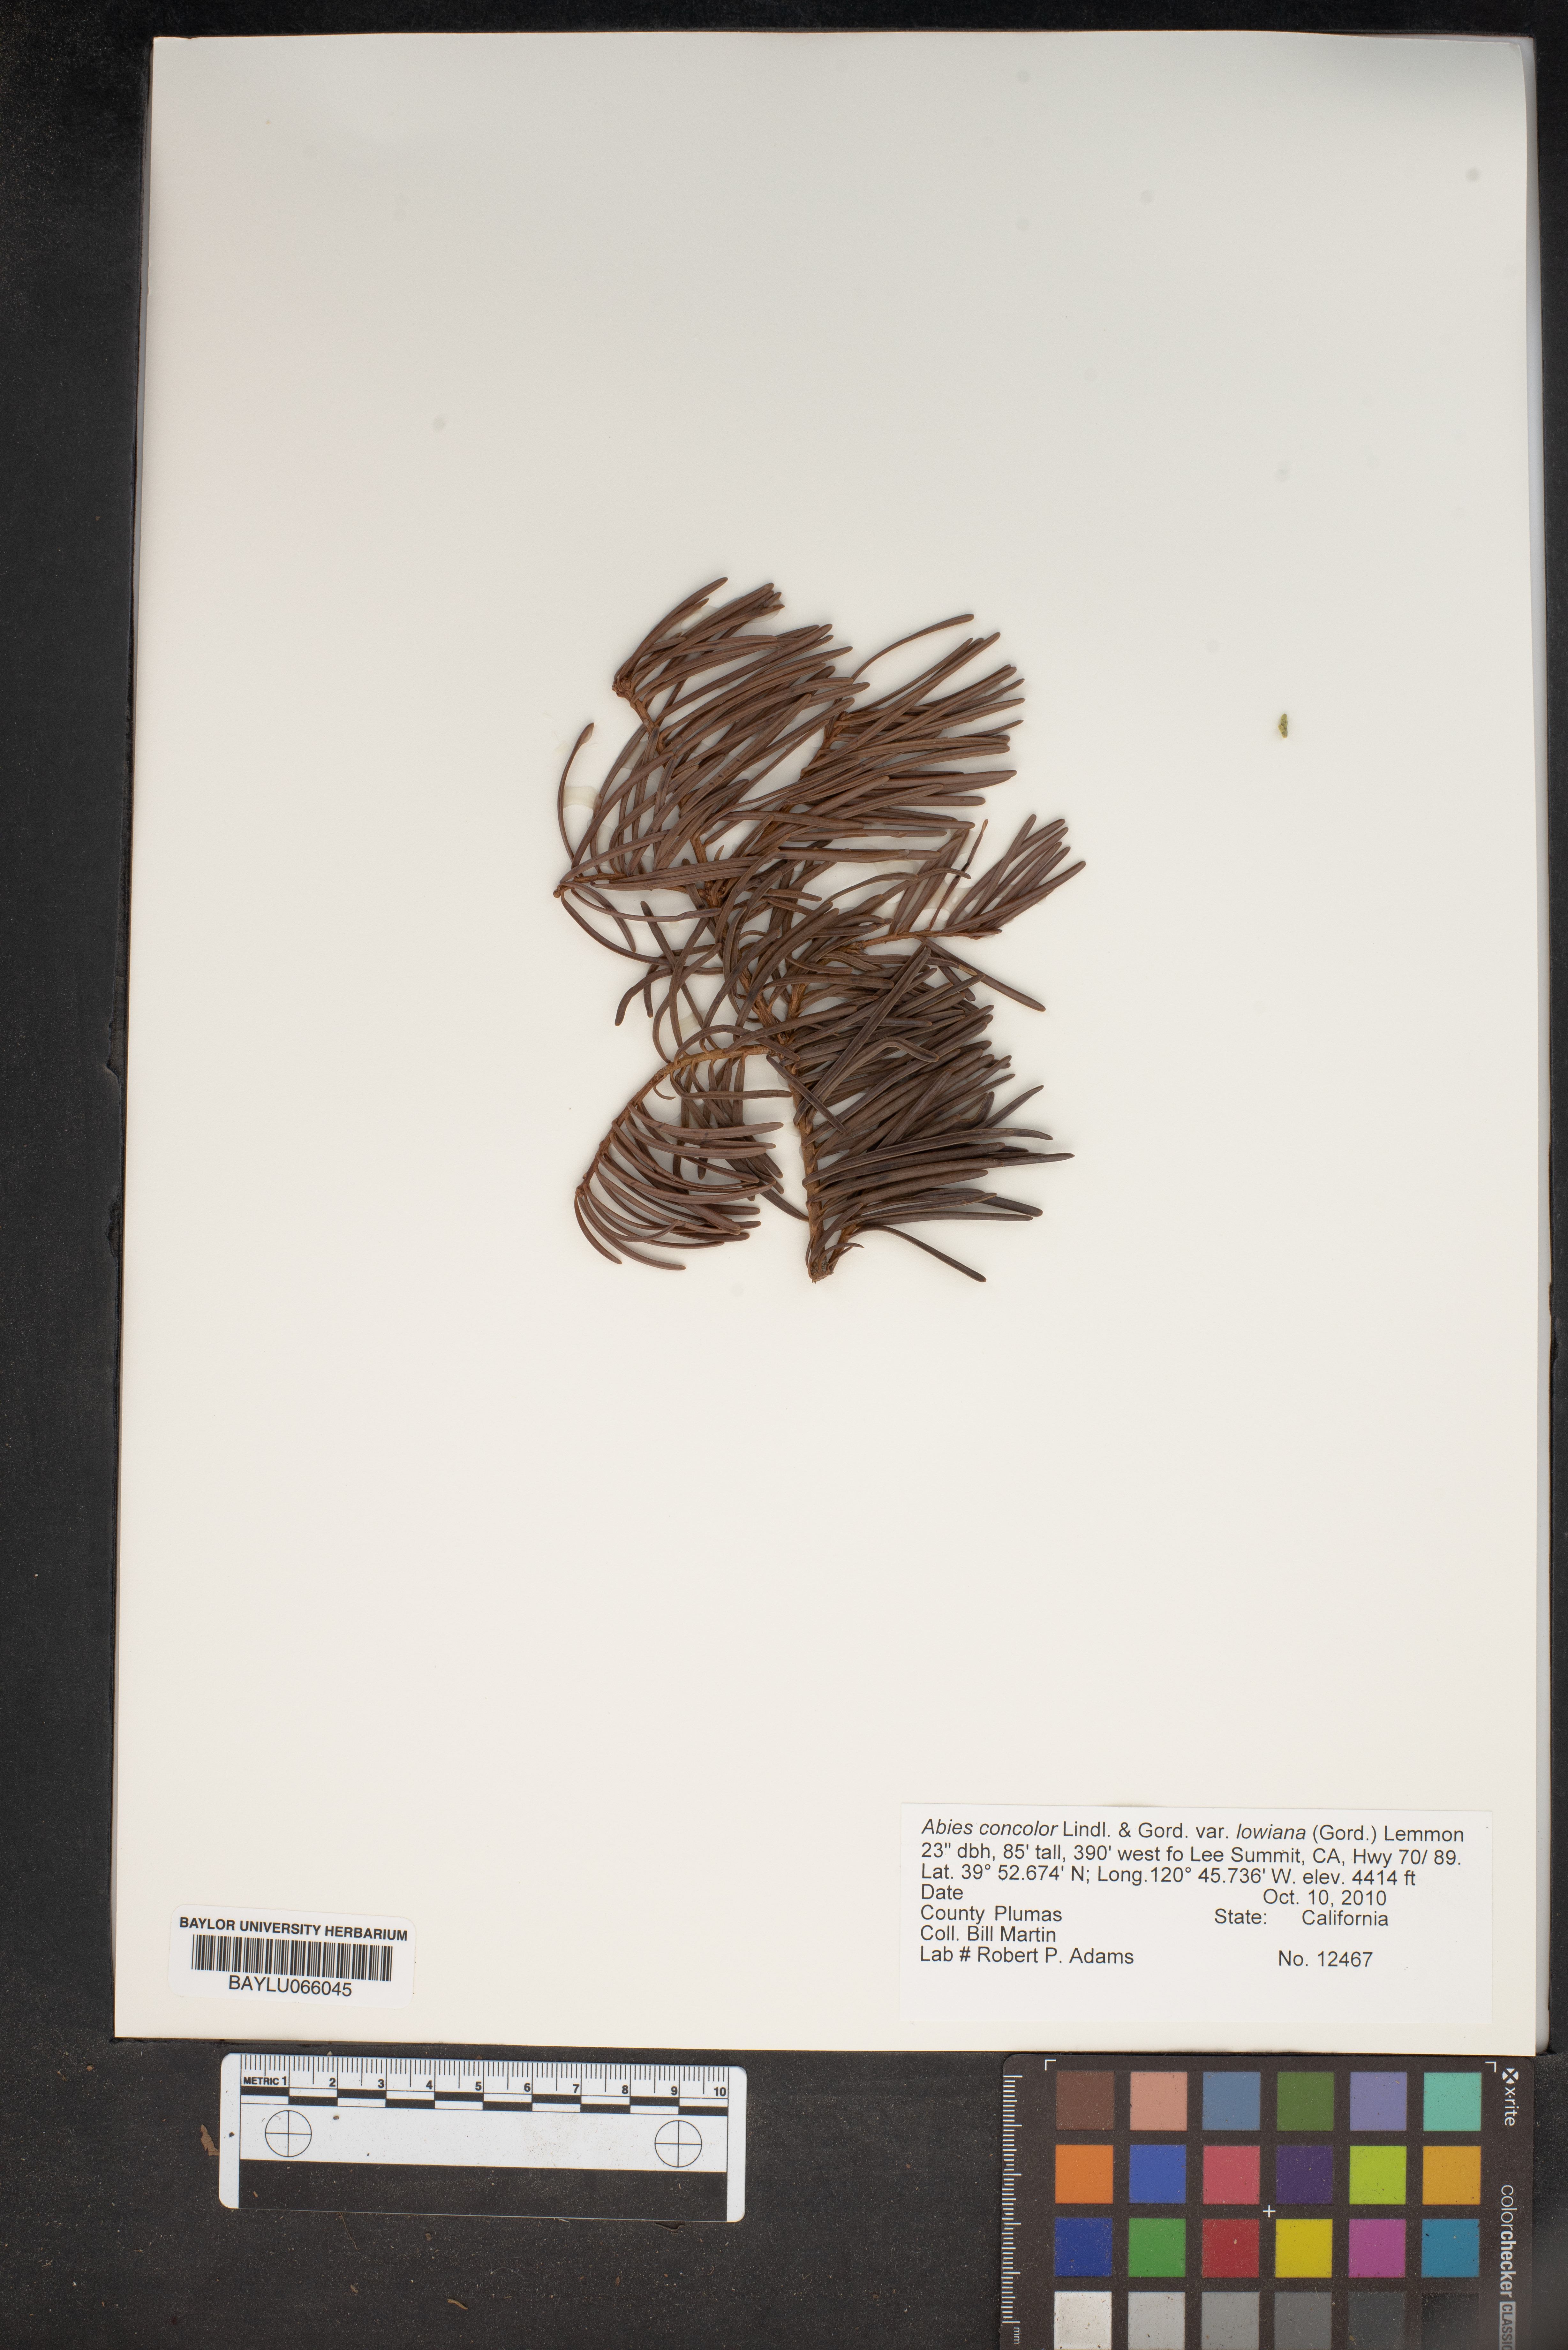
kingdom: Plantae
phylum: Tracheophyta
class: Pinopsida
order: Pinales
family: Pinaceae
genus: Abies
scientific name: Abies concolor
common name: Colorado fir
